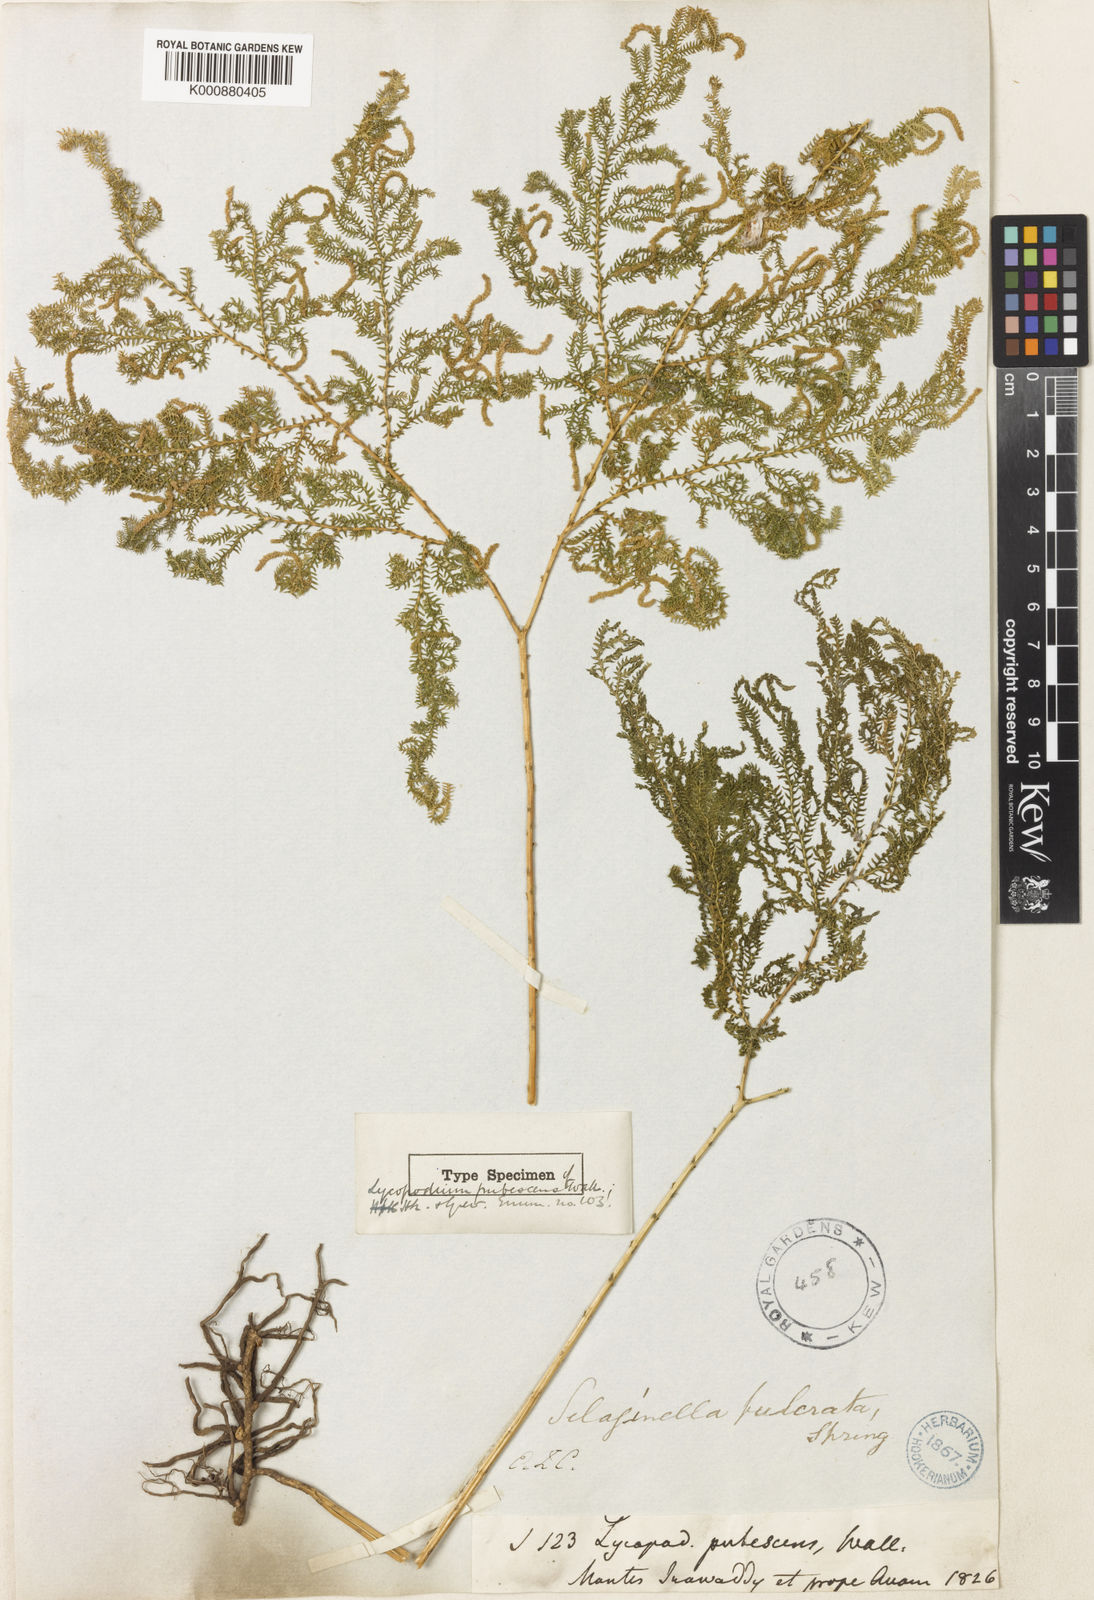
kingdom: Plantae
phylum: Tracheophyta
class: Lycopodiopsida
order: Selaginellales
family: Selaginellaceae
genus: Selaginella
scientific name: Selaginella pubescens
